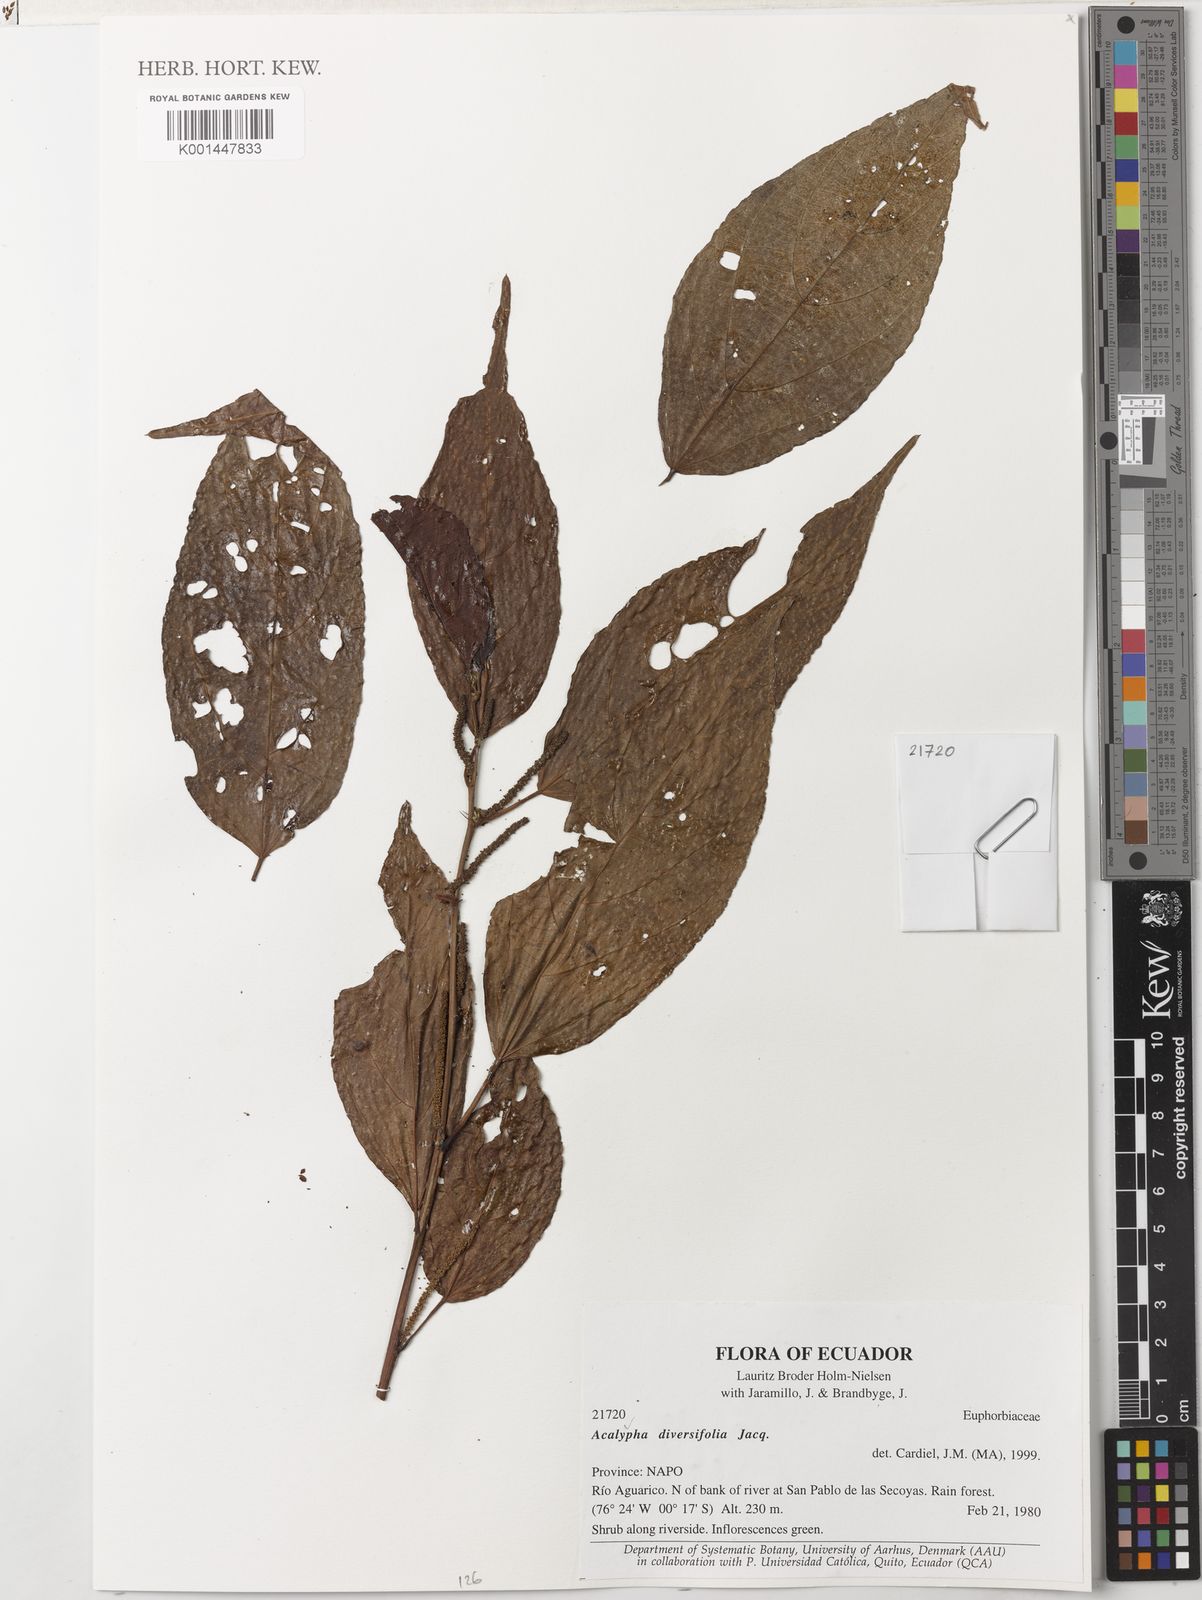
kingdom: Plantae
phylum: Tracheophyta
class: Magnoliopsida
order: Malpighiales
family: Euphorbiaceae
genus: Acalypha
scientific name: Acalypha diversifolia
